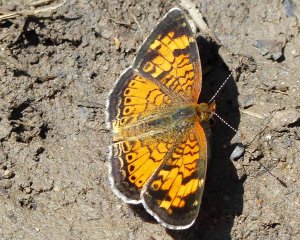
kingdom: Animalia
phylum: Arthropoda
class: Insecta
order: Lepidoptera
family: Nymphalidae
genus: Phyciodes
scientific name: Phyciodes tharos
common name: Northern Crescent
